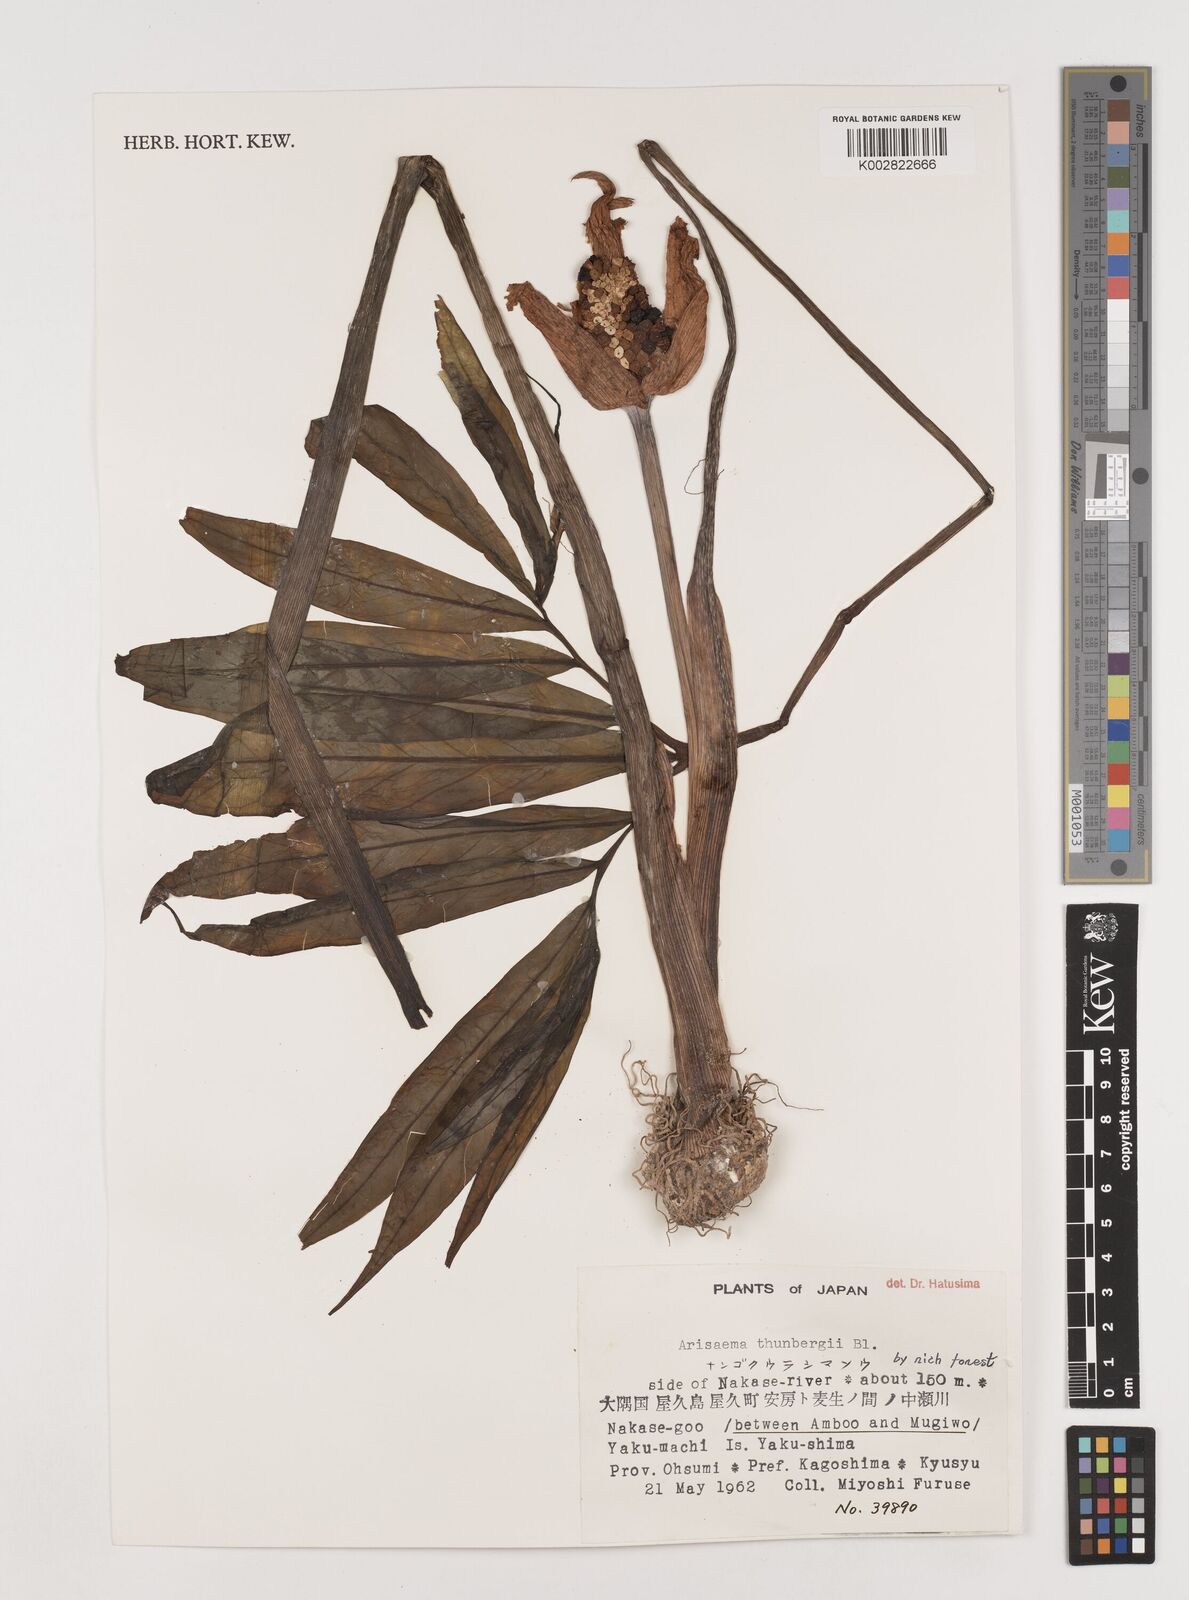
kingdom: Plantae
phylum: Tracheophyta
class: Liliopsida
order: Alismatales
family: Araceae
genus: Arisaema
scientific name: Arisaema thunbergii
